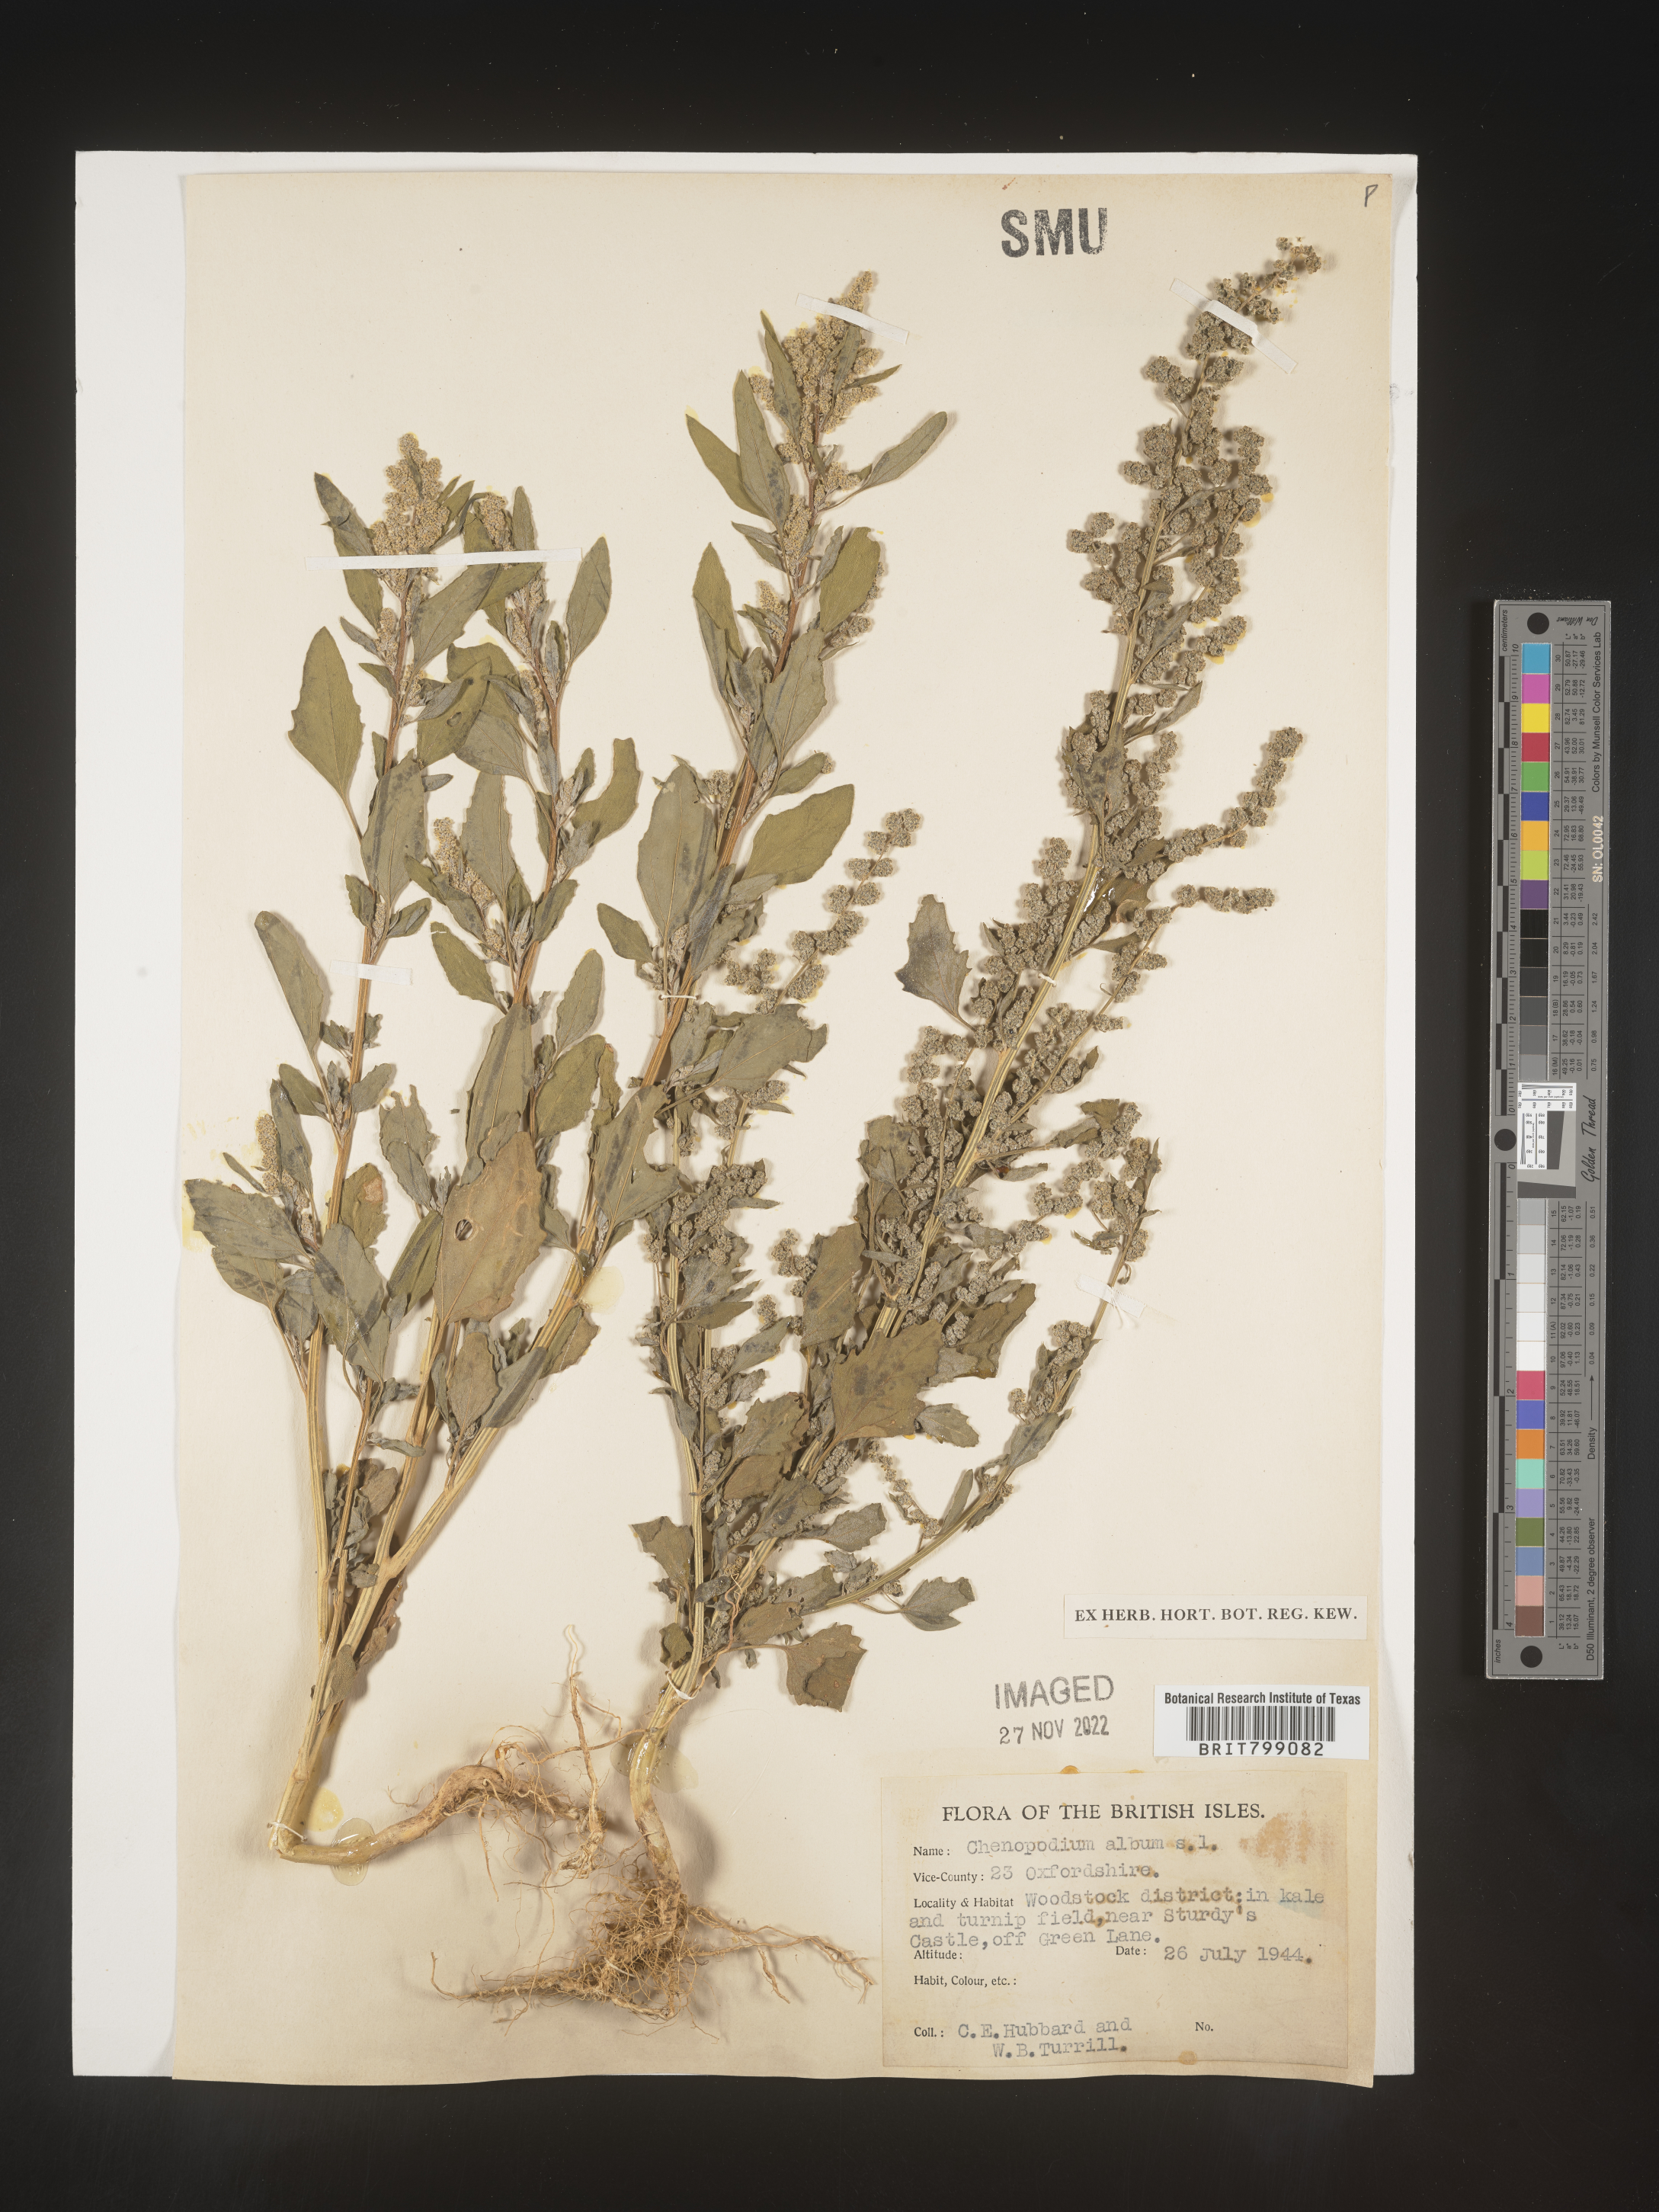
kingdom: Plantae
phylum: Tracheophyta
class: Magnoliopsida
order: Caryophyllales
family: Amaranthaceae
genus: Chenopodium
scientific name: Chenopodium
